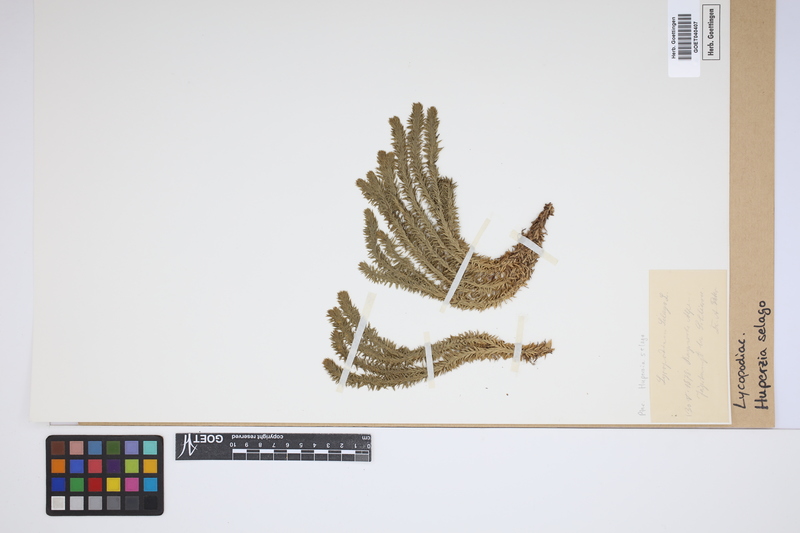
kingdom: Plantae
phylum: Tracheophyta
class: Lycopodiopsida
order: Lycopodiales
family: Lycopodiaceae
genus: Huperzia
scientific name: Huperzia selago
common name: Northern firmoss
